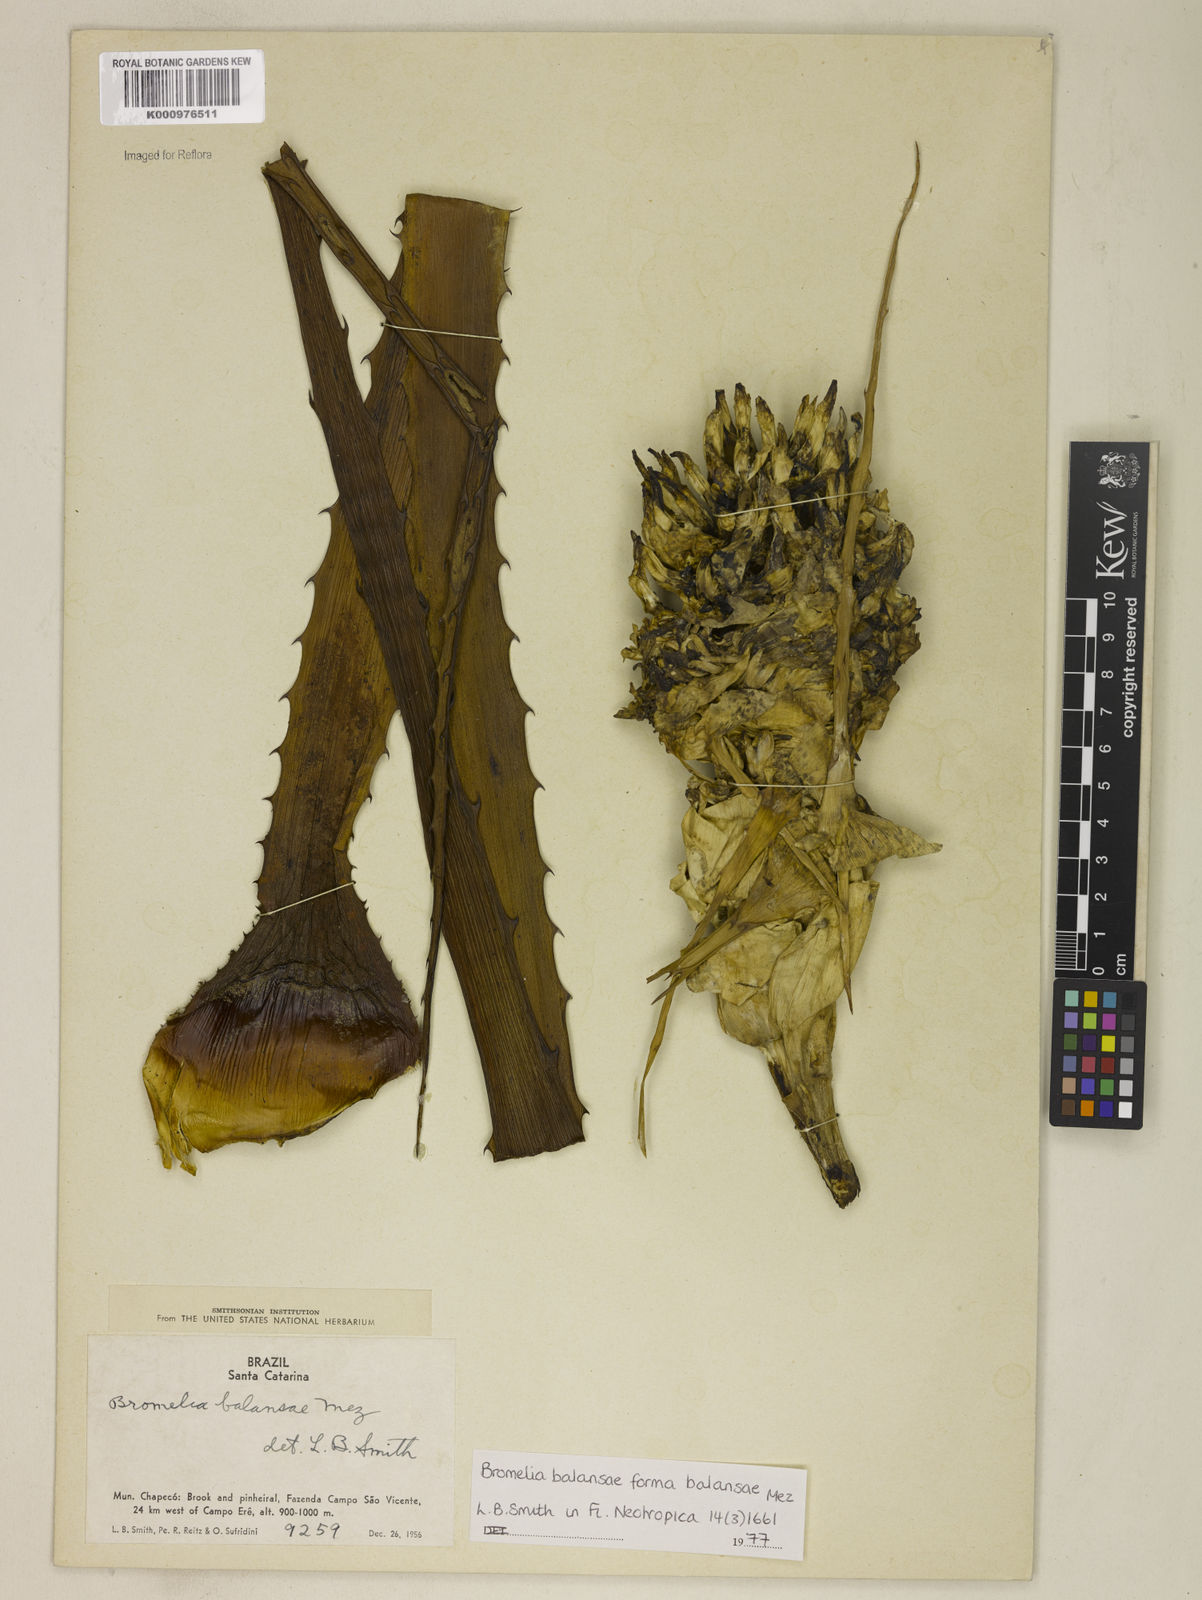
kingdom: Plantae
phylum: Tracheophyta
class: Liliopsida
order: Poales
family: Bromeliaceae
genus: Bromelia
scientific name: Bromelia balansae
